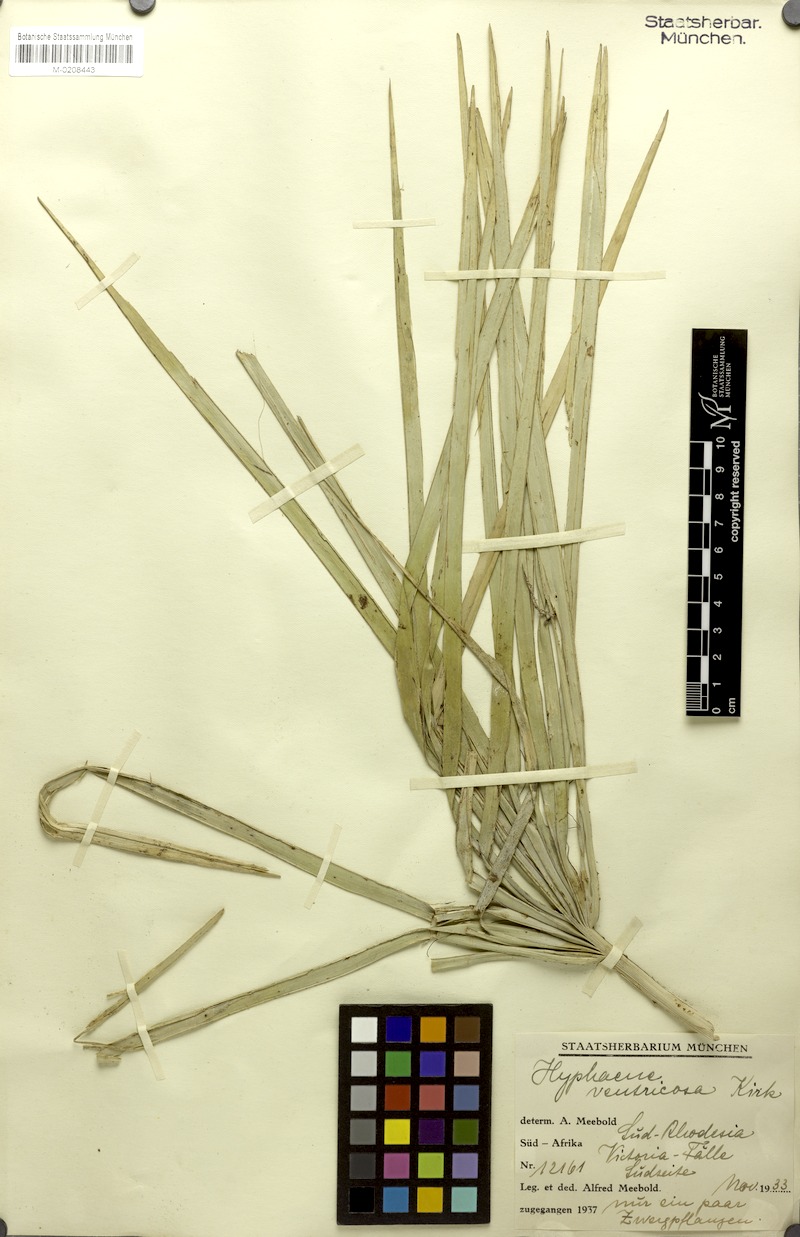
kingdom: Plantae
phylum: Tracheophyta
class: Liliopsida
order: Arecales
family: Arecaceae
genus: Hyphaene
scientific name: Hyphaene petersiana
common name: African ivory nut palm
